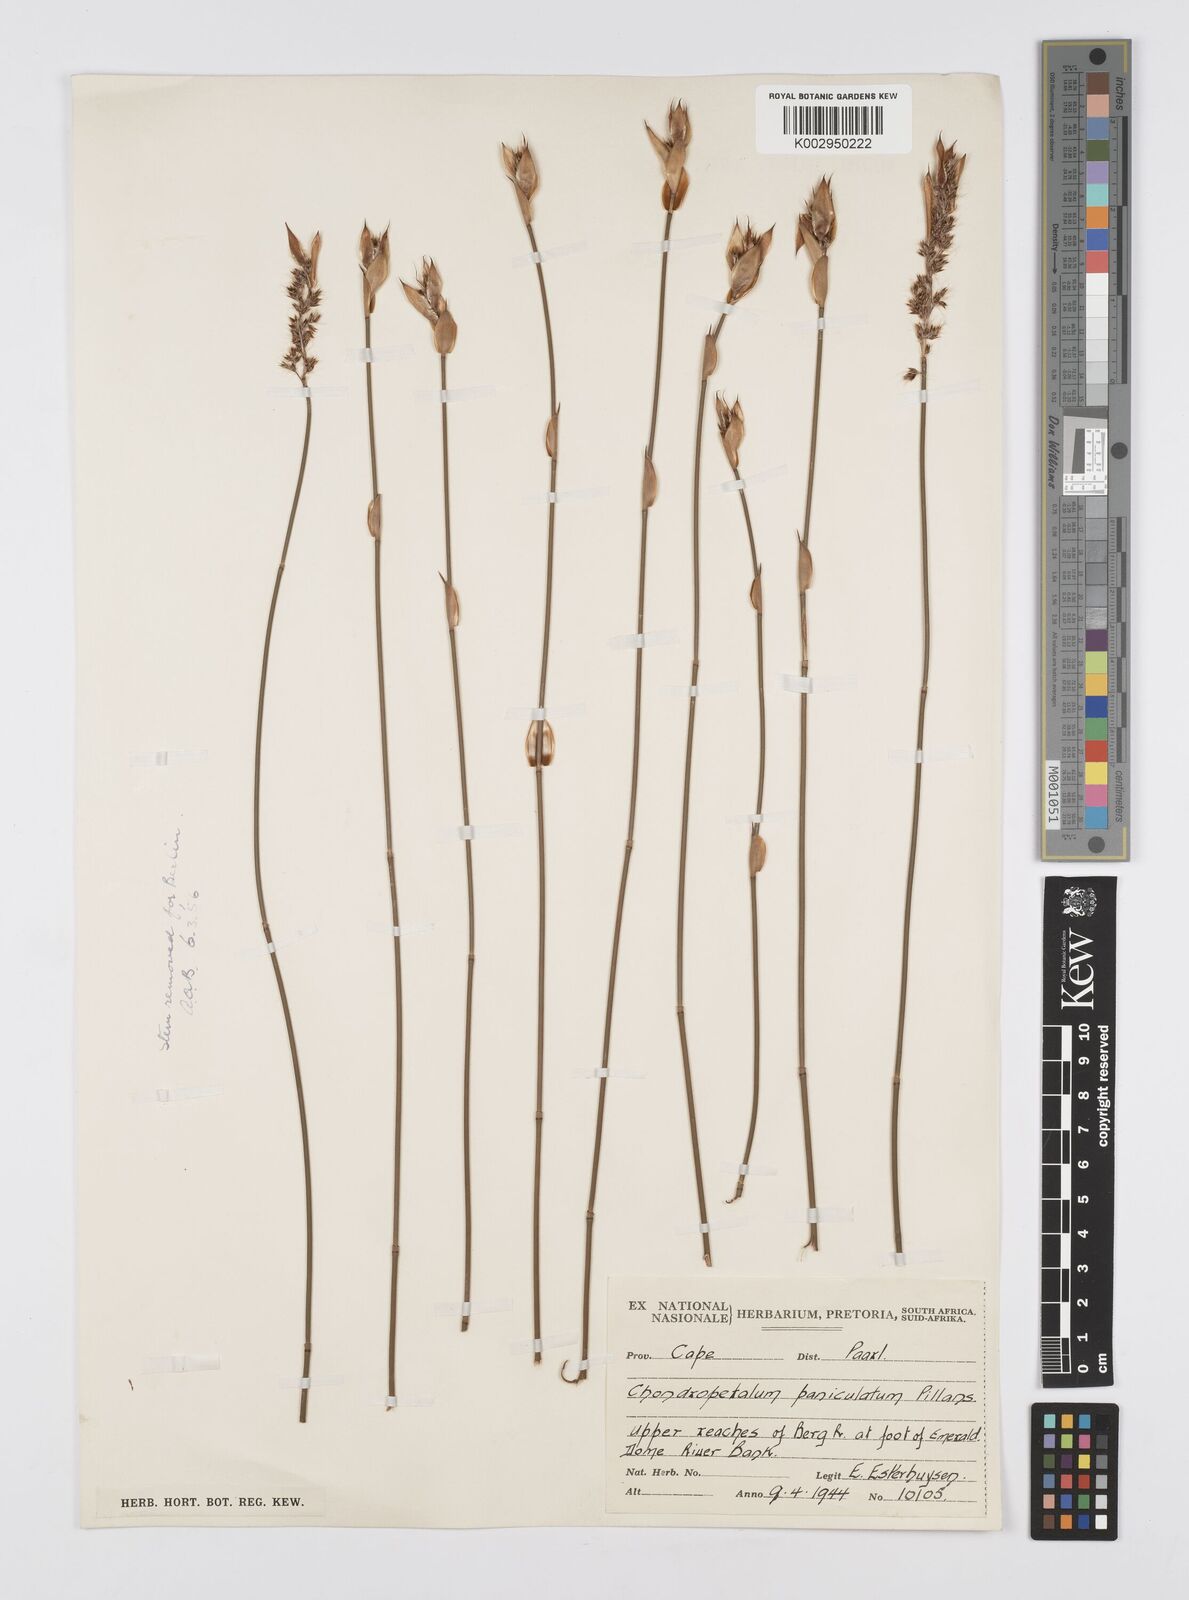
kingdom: Plantae
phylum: Tracheophyta
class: Liliopsida
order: Poales
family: Restionaceae
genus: Askidiosperma
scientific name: Askidiosperma paniculatum
